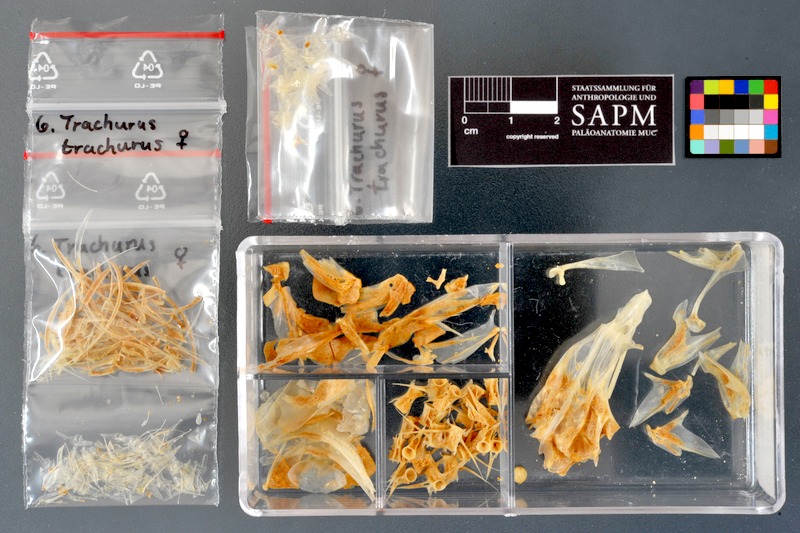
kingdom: Animalia
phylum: Chordata
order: Perciformes
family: Carangidae
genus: Trachurus
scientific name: Trachurus trachurus
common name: Horse mackerel
